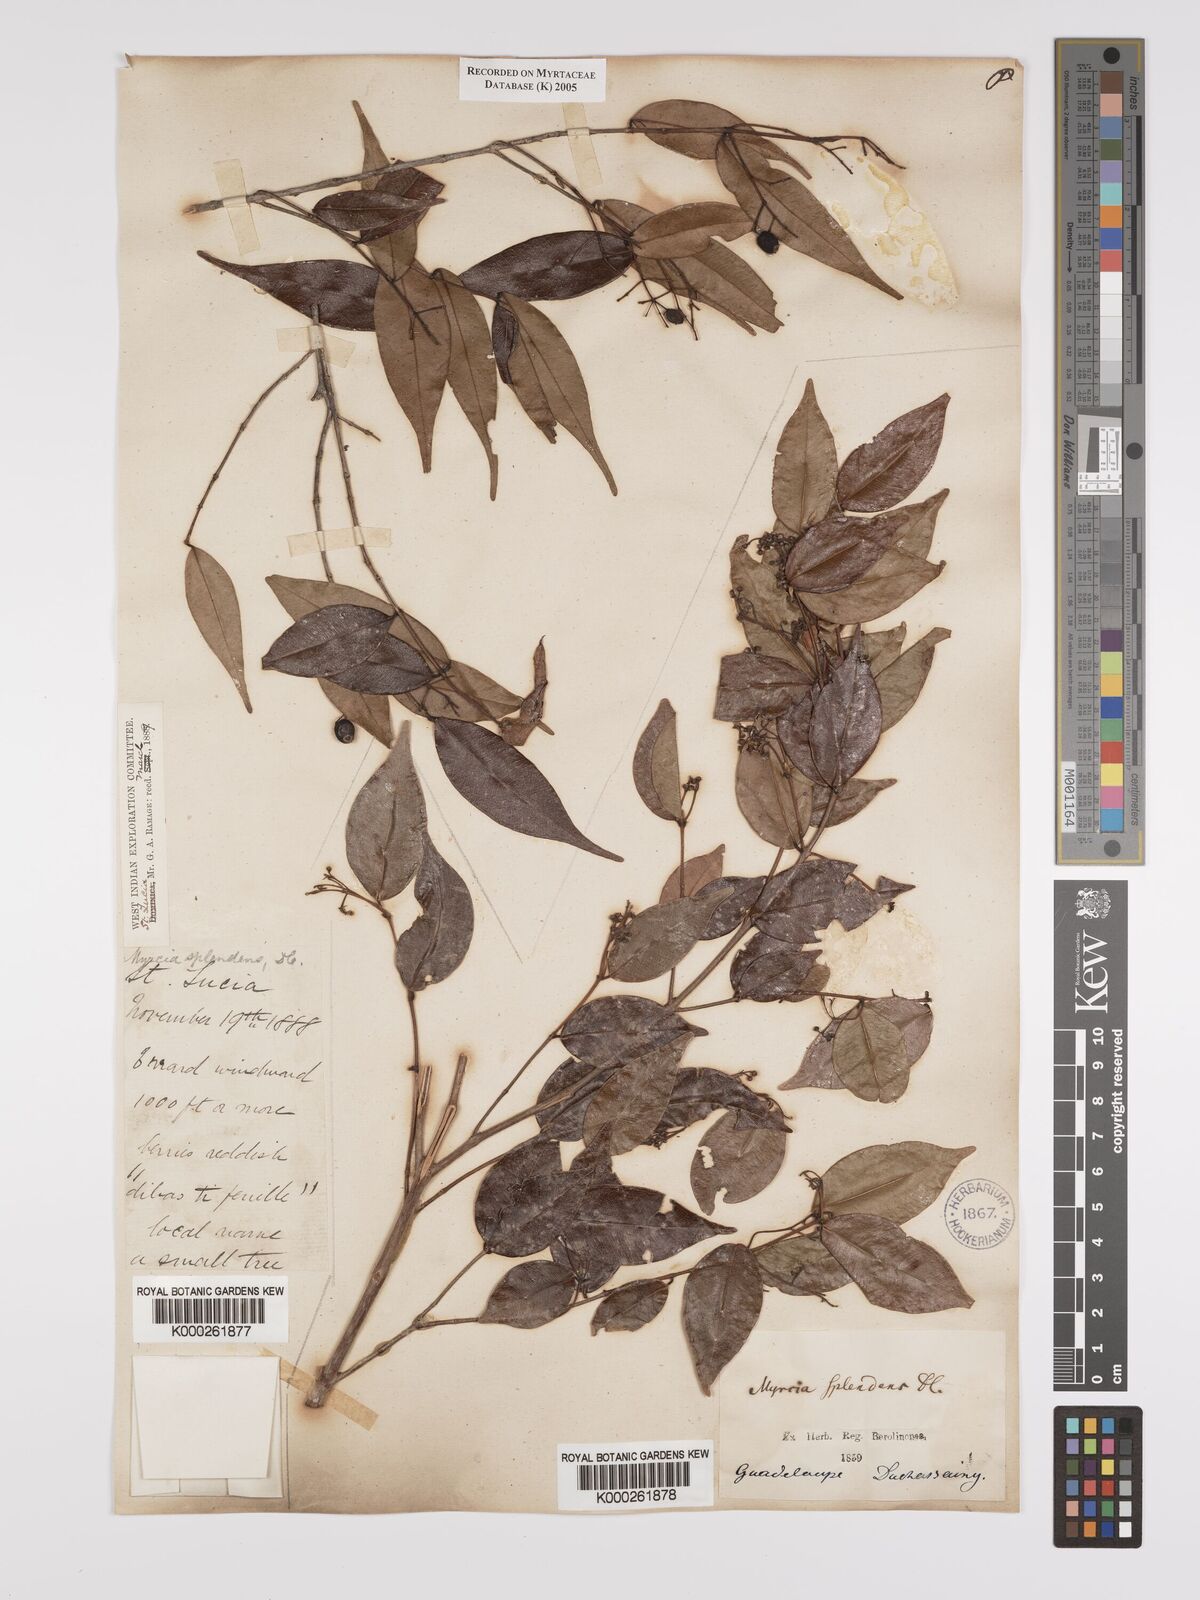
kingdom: Plantae
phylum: Tracheophyta
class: Magnoliopsida
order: Myrtales
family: Myrtaceae
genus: Myrcia
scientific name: Myrcia splendens
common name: Surinam cherry
